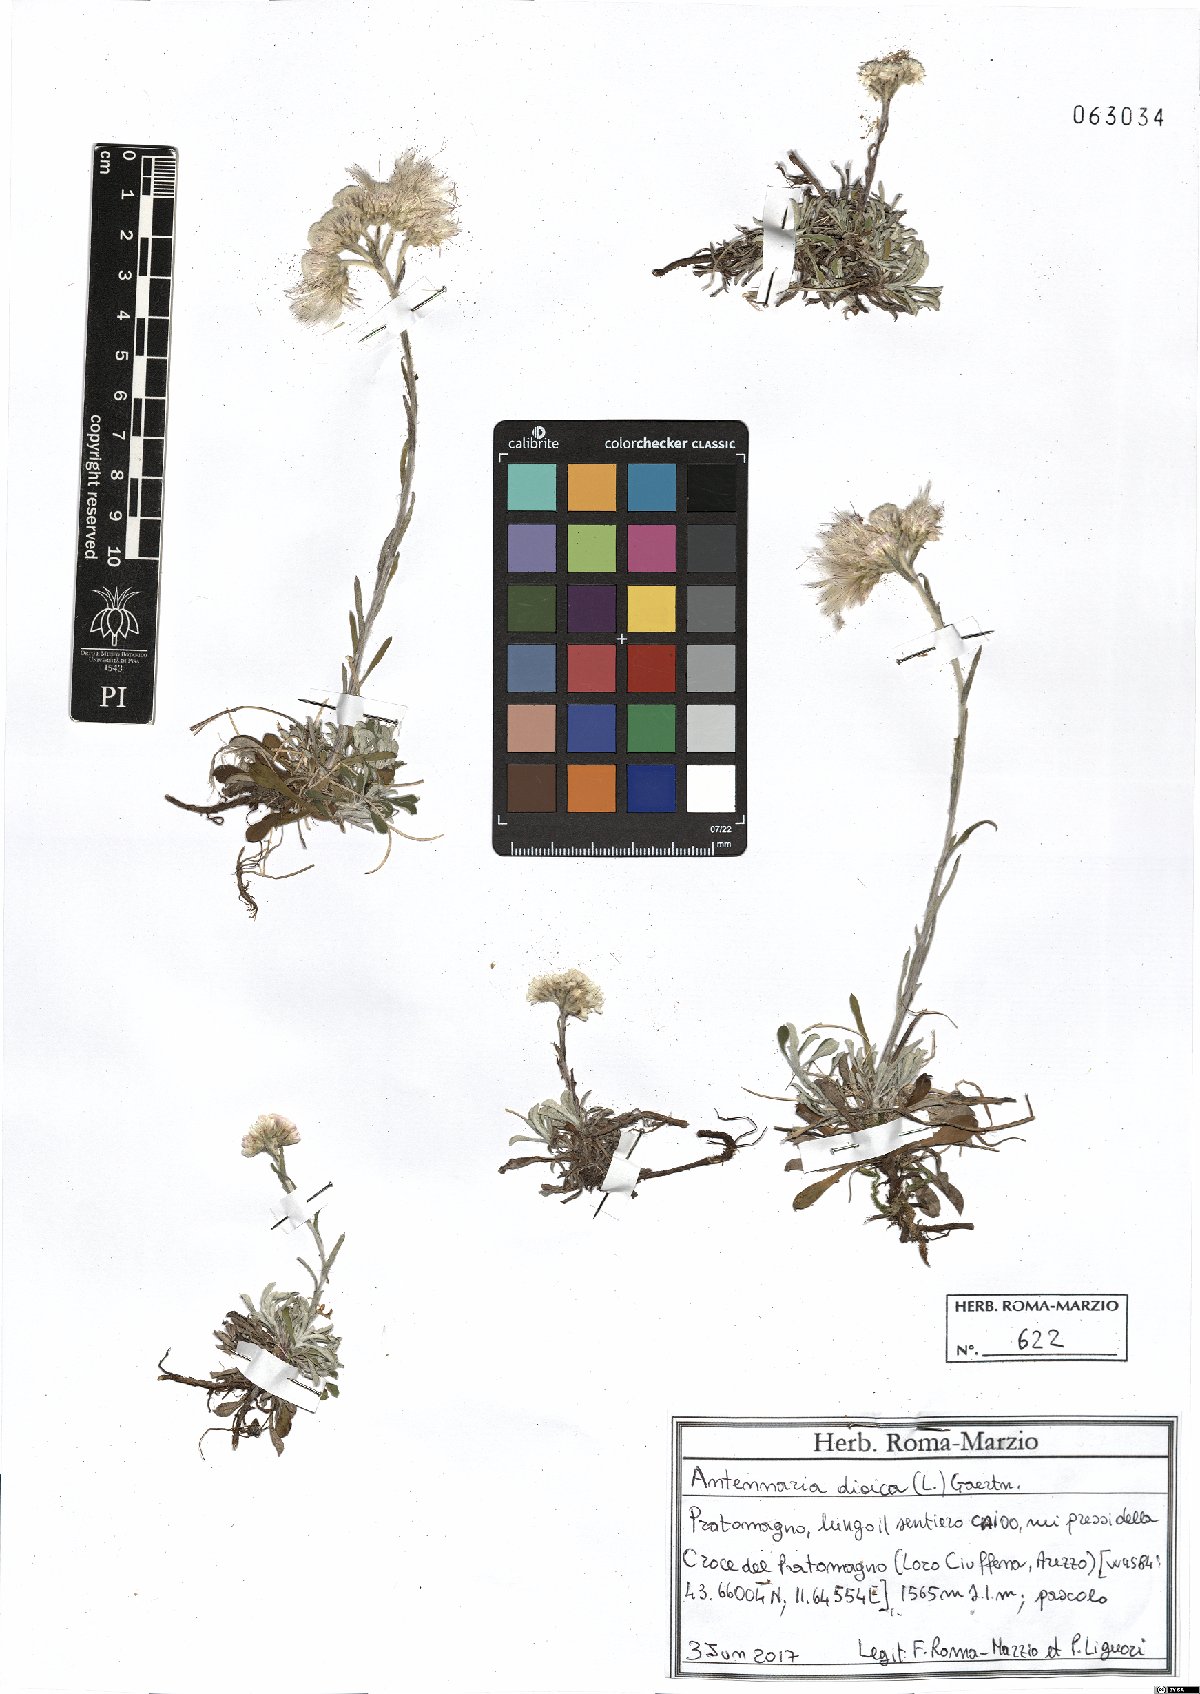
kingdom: Plantae
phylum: Tracheophyta
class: Magnoliopsida
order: Asterales
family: Asteraceae
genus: Antennaria
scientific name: Antennaria dioica
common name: Mountain everlasting
